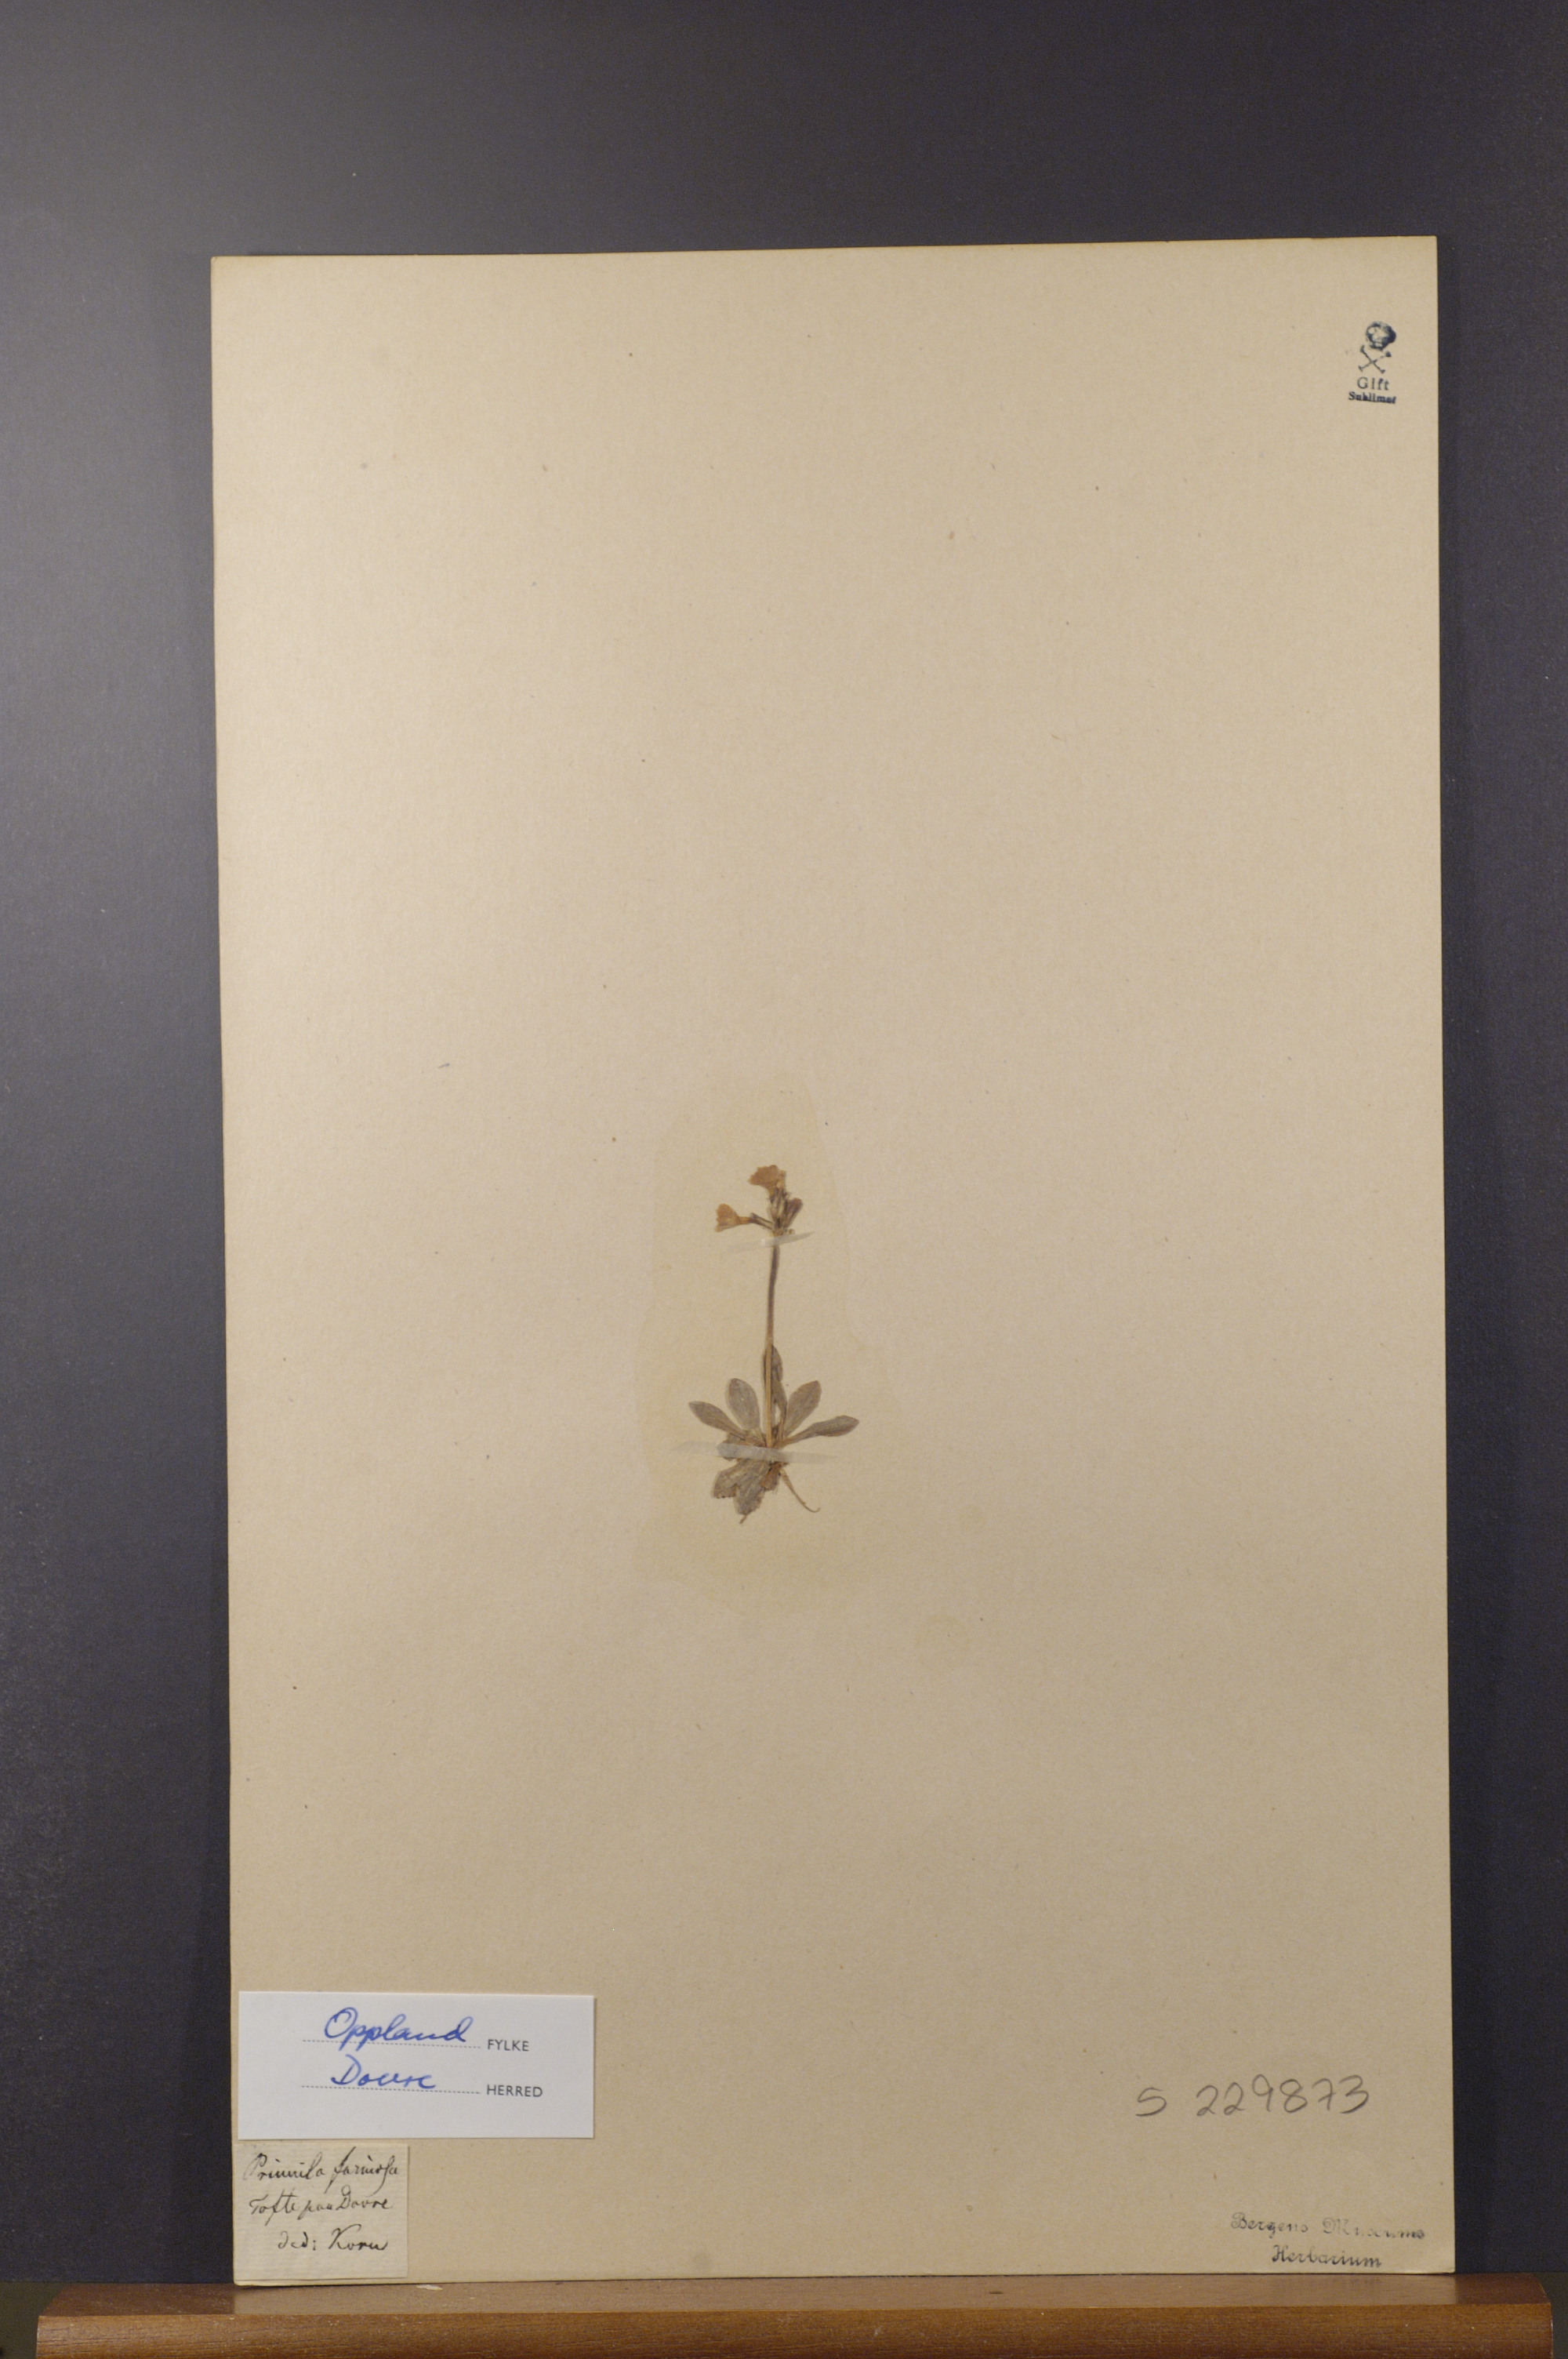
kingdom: Plantae
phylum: Tracheophyta
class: Magnoliopsida
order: Ericales
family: Primulaceae
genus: Primula
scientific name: Primula farinosa
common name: Bird's-eye primrose
